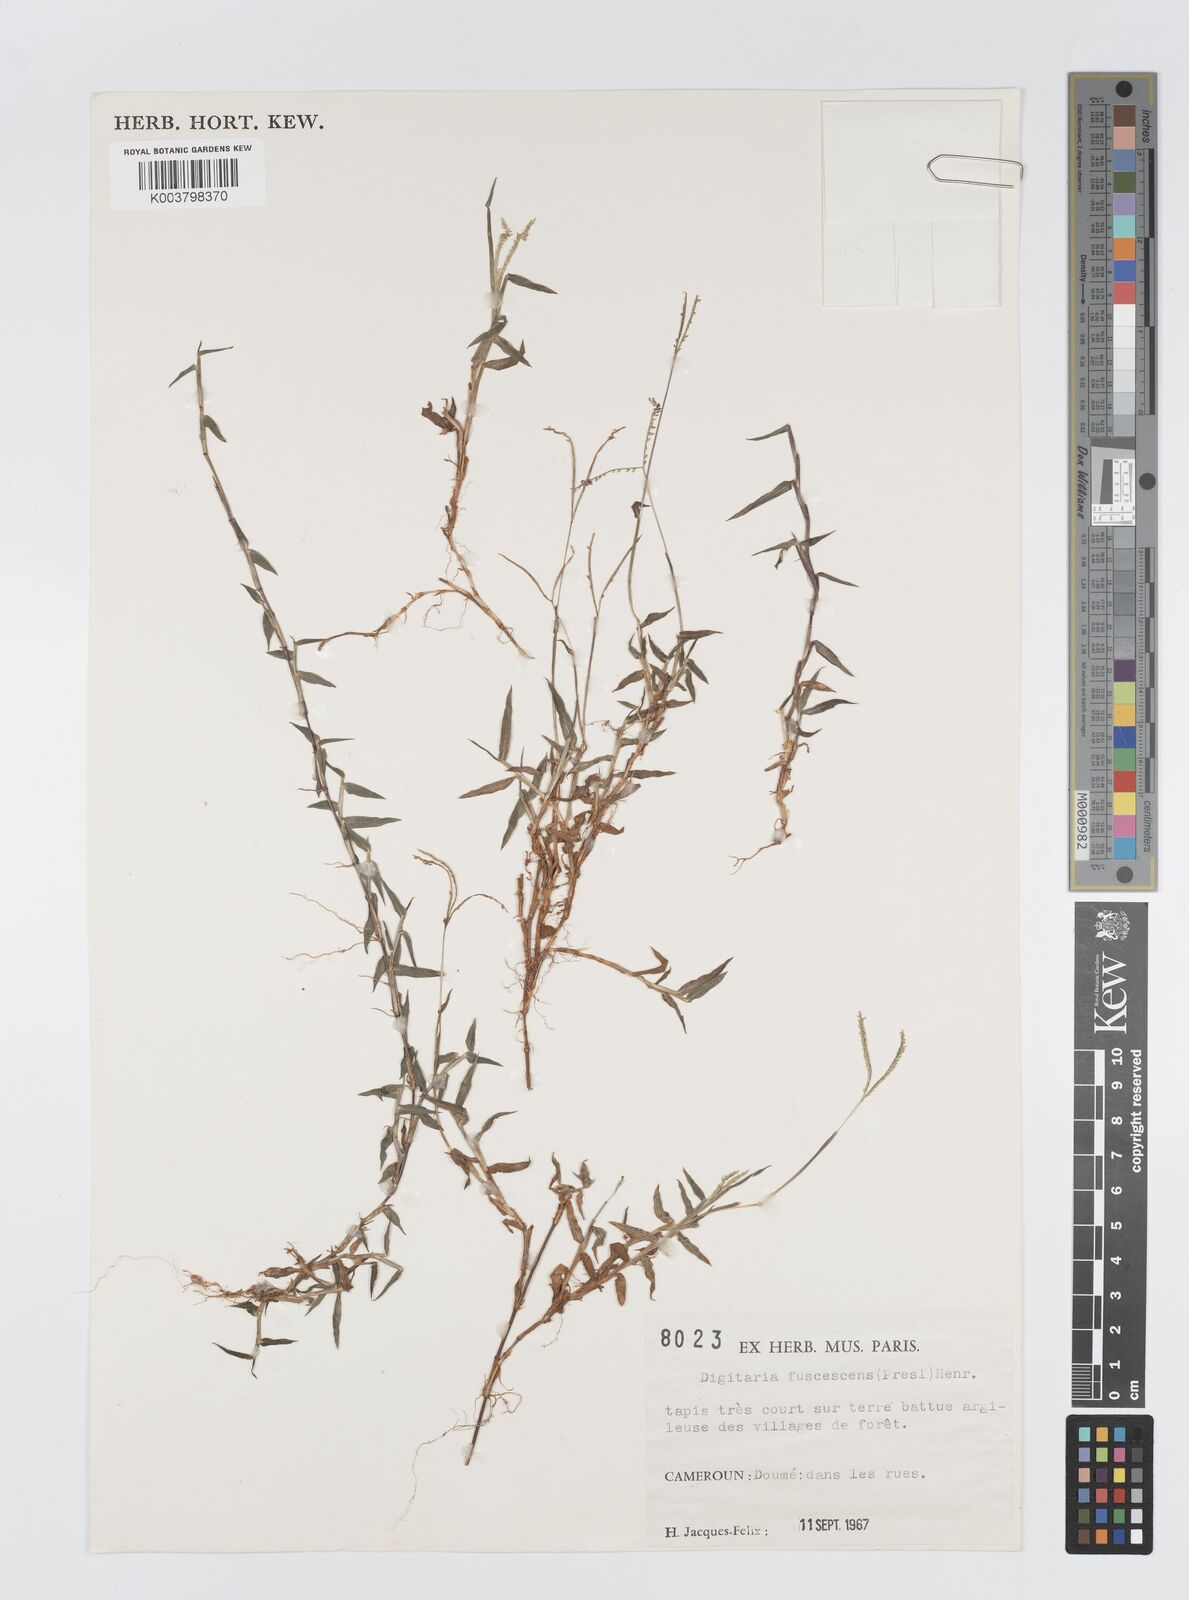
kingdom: Plantae
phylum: Tracheophyta
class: Liliopsida
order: Poales
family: Poaceae
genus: Digitaria
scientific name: Digitaria fuscescens
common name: Yellow crabgrass
